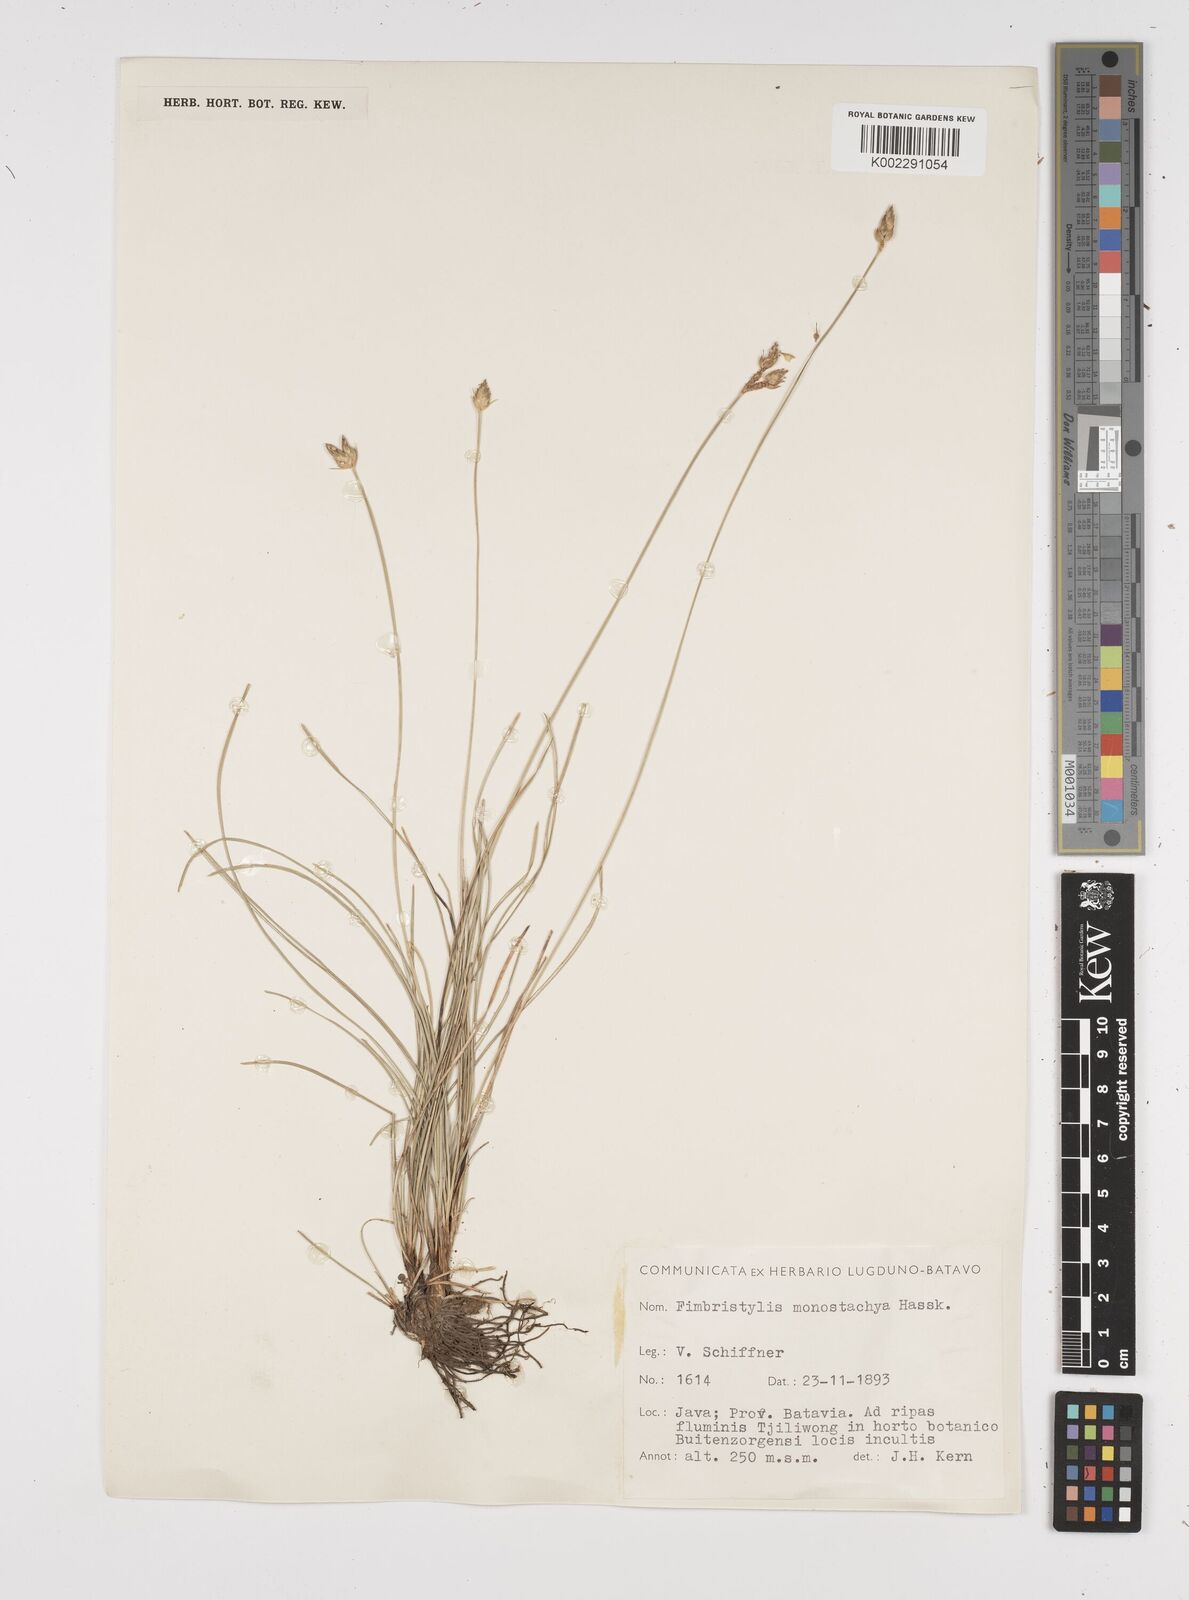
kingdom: Plantae
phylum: Tracheophyta
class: Liliopsida
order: Poales
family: Cyperaceae
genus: Abildgaardia
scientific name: Abildgaardia ovata
